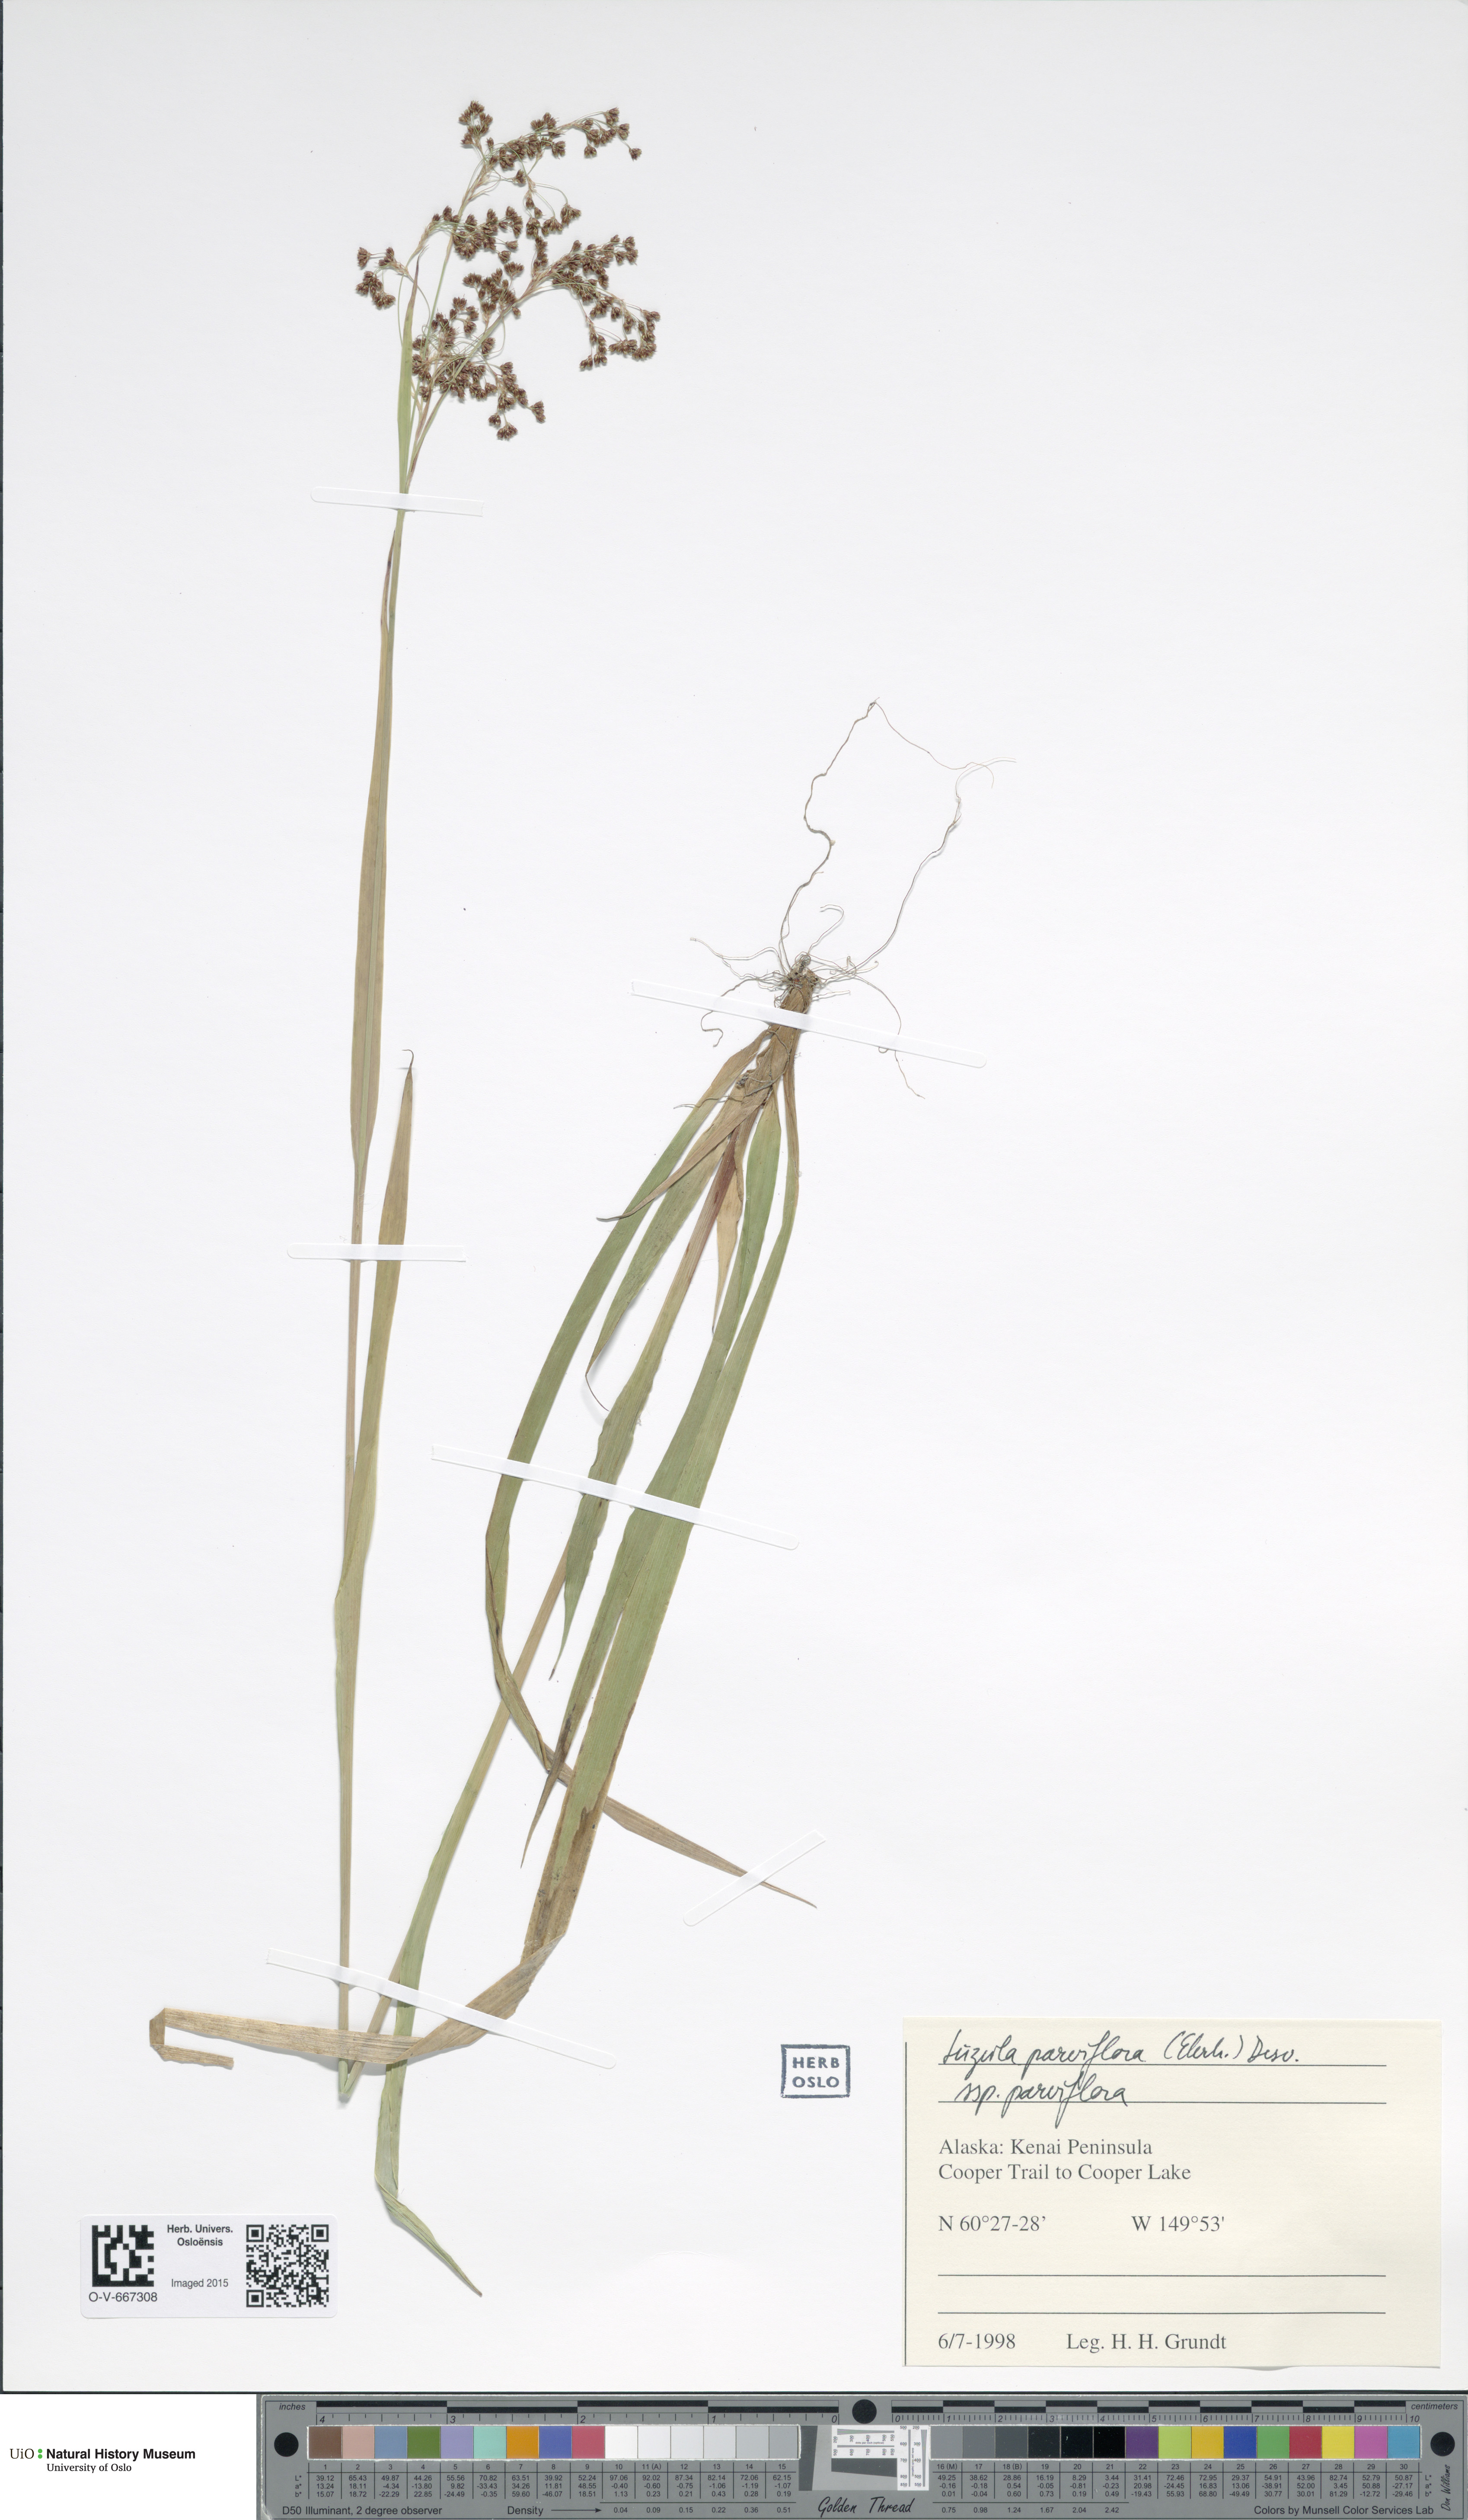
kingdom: Plantae
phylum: Tracheophyta
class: Liliopsida
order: Poales
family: Juncaceae
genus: Luzula
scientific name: Luzula parviflora
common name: Millet woodrush
